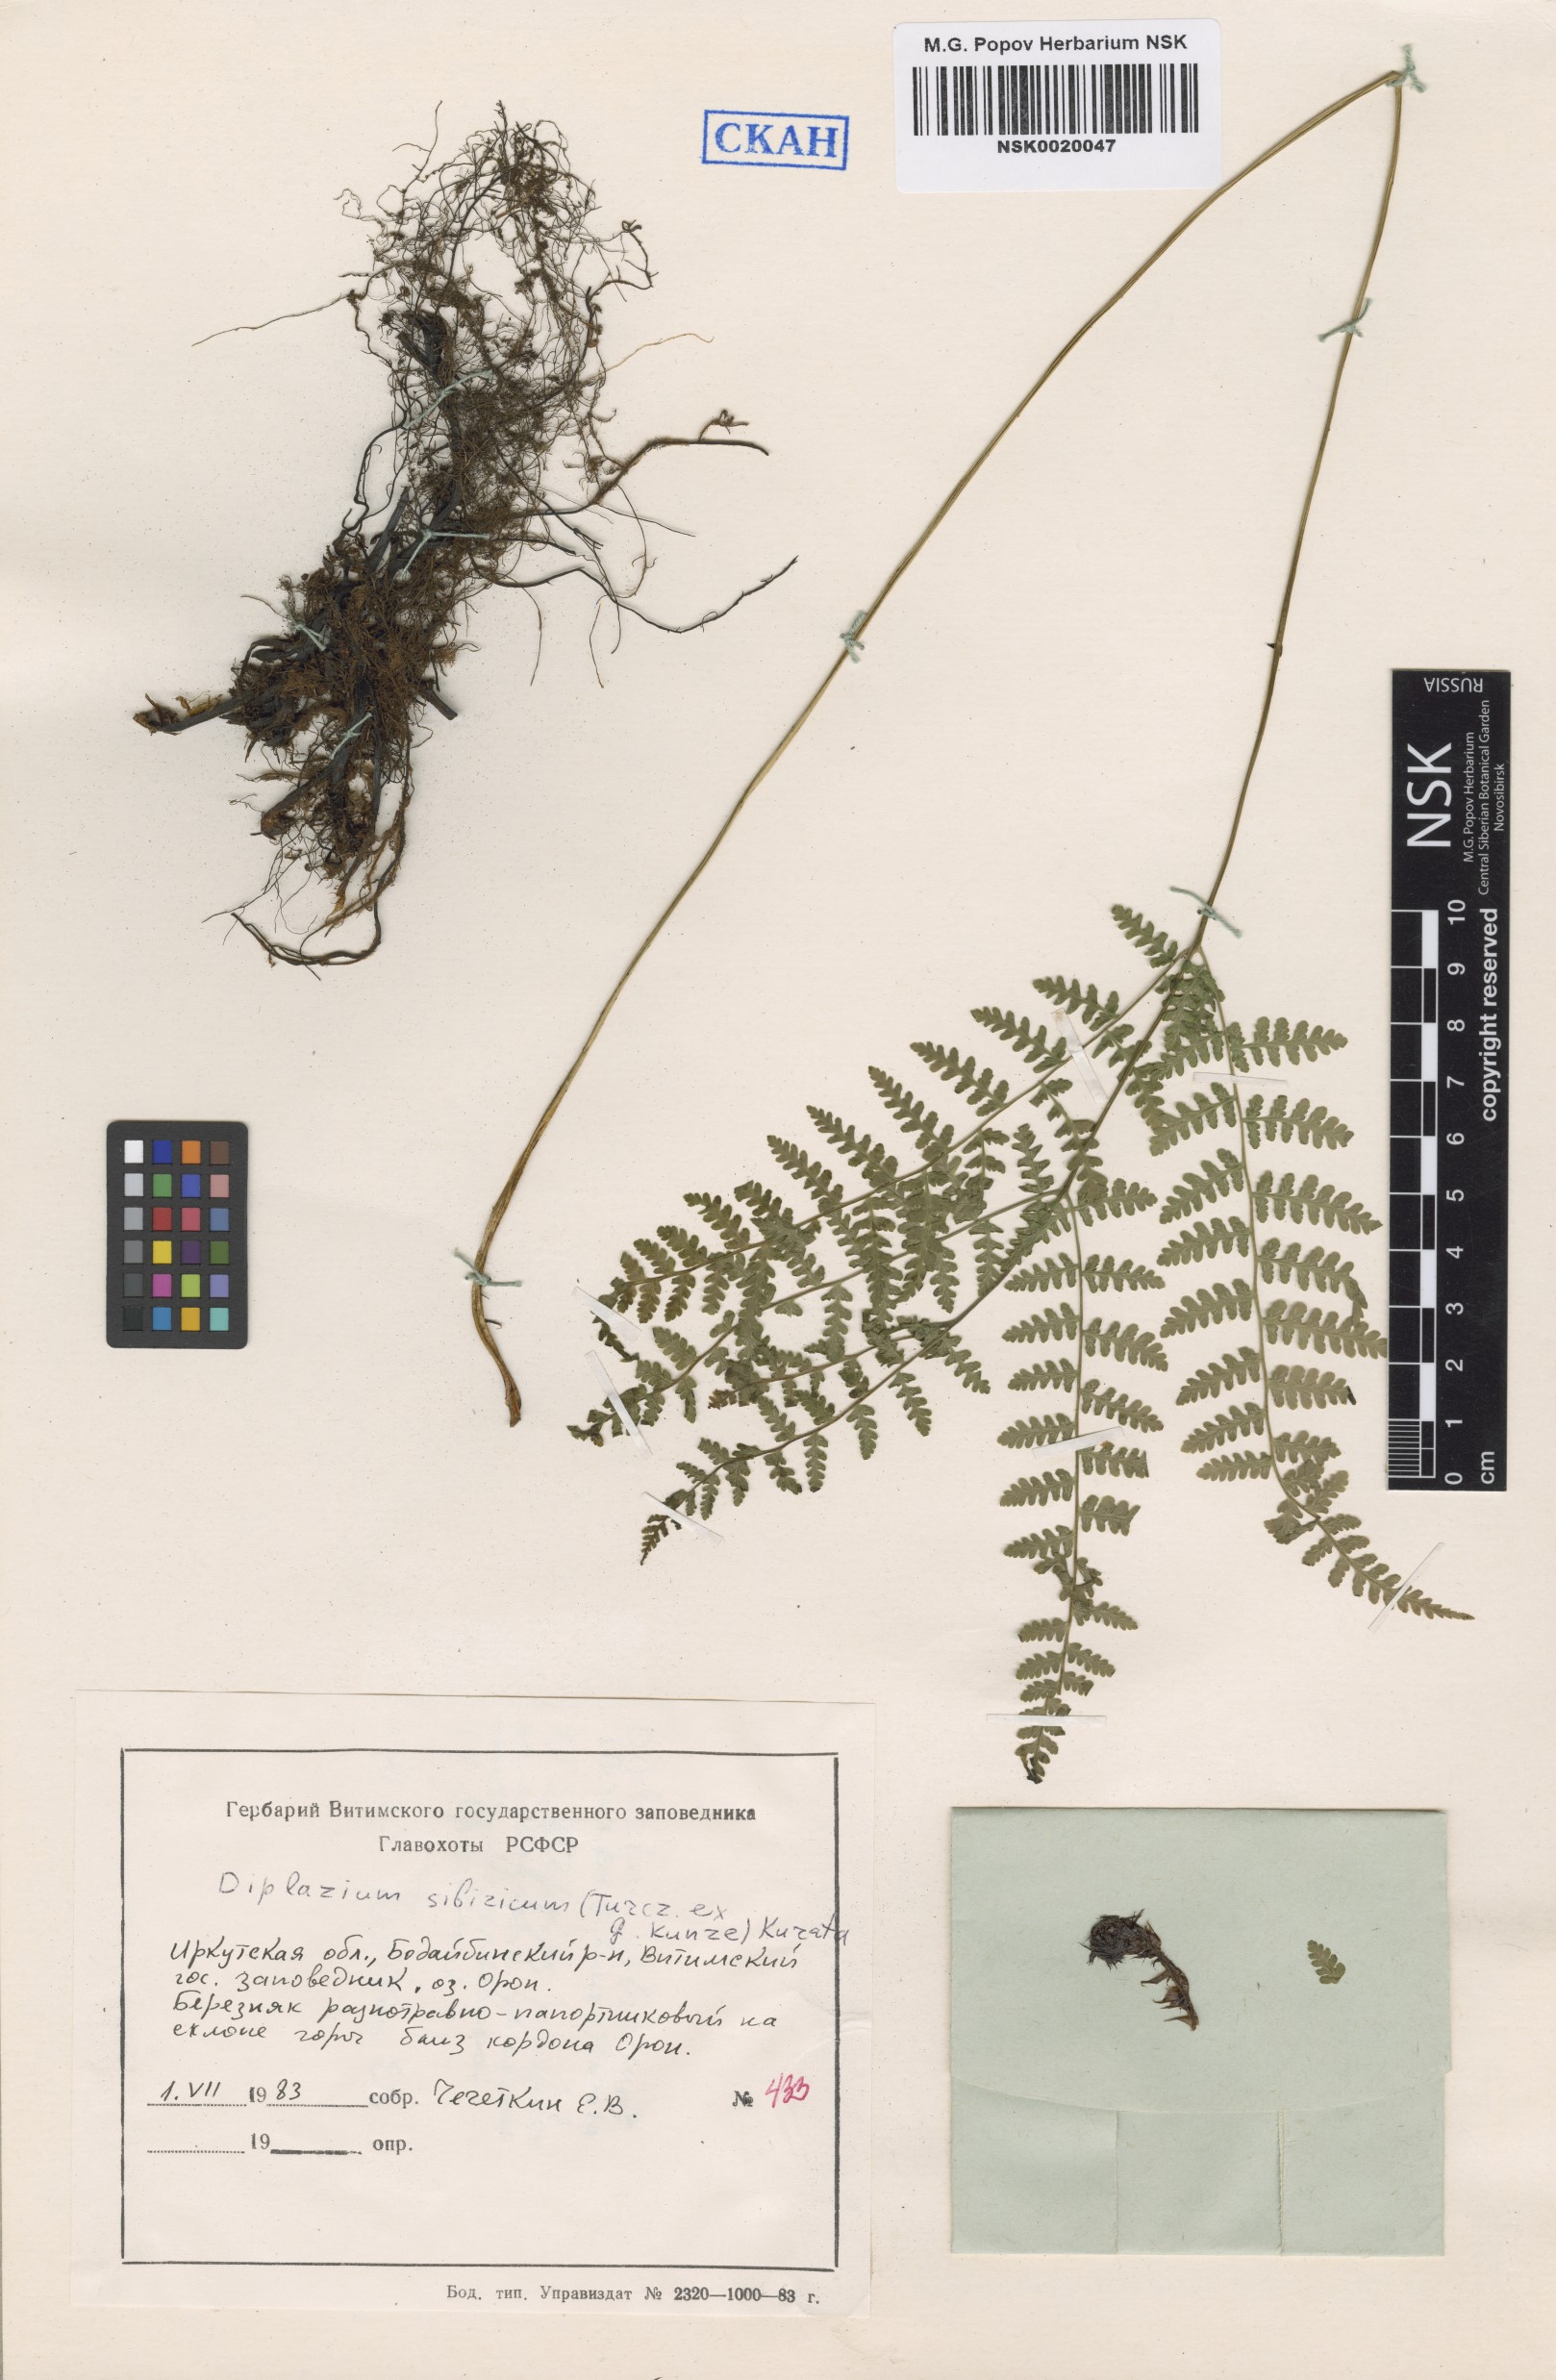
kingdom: Plantae
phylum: Tracheophyta
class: Polypodiopsida
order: Polypodiales
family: Athyriaceae
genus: Diplazium
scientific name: Diplazium sibiricum
